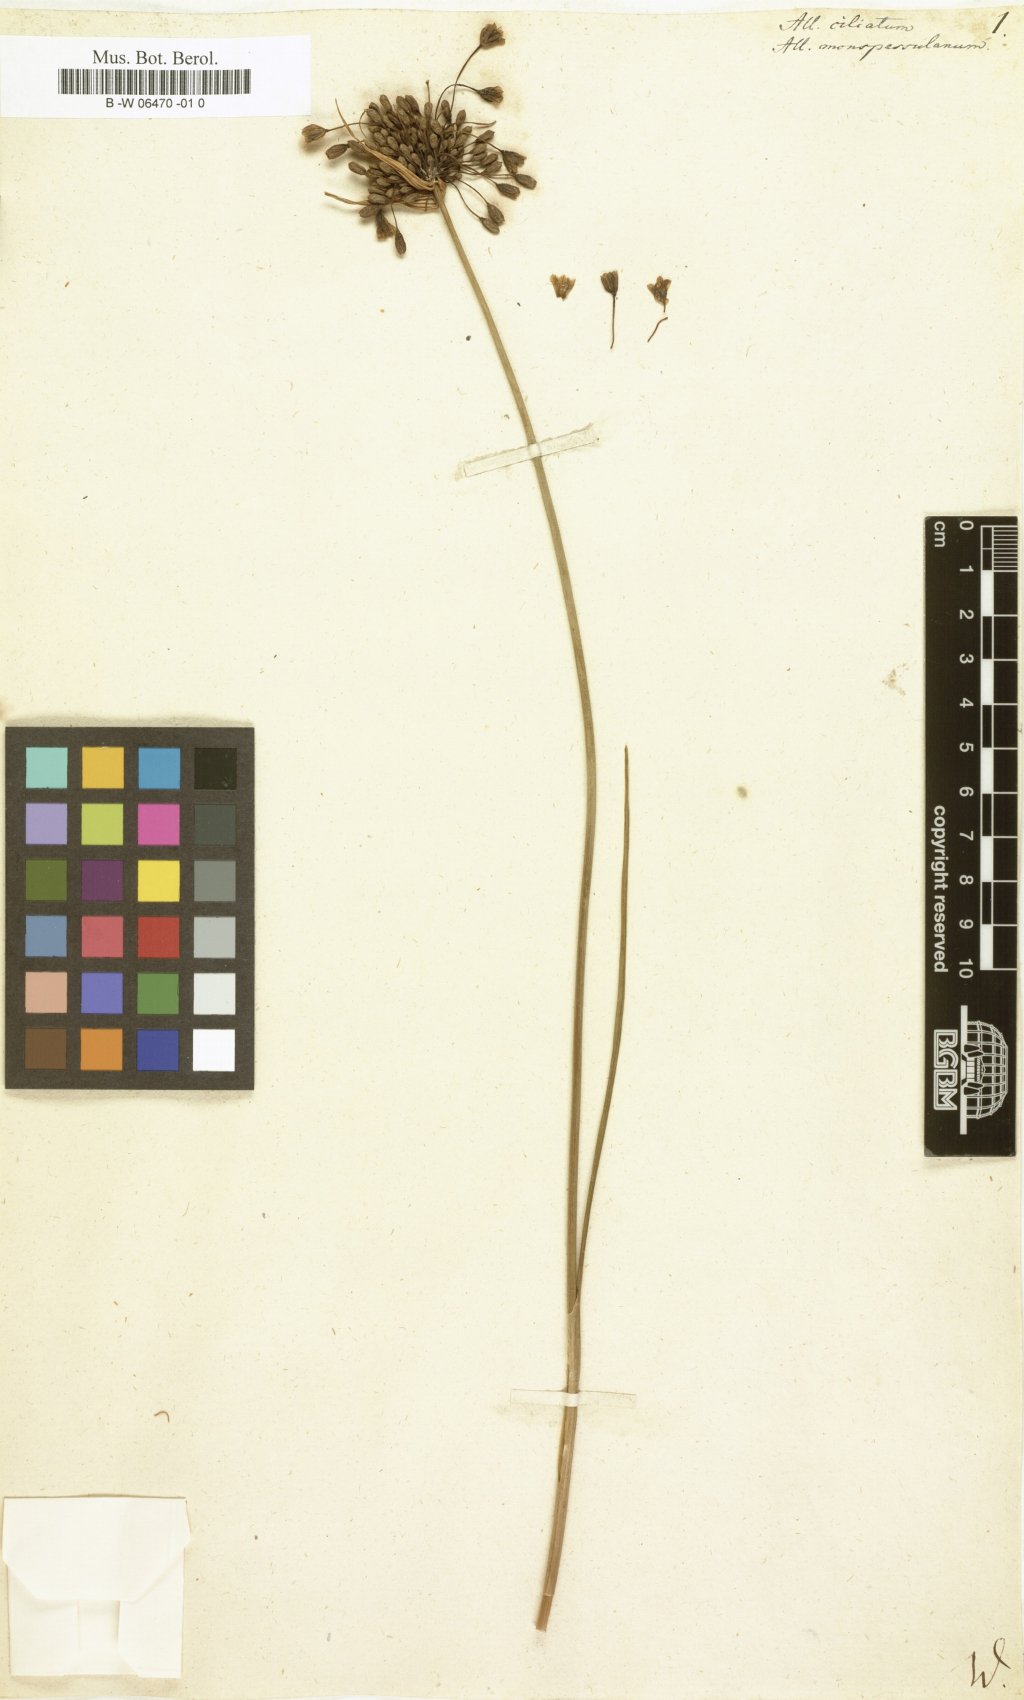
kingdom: Plantae
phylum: Tracheophyta
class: Liliopsida
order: Asparagales
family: Amaryllidaceae
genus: Allium
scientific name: Allium ciliatum
